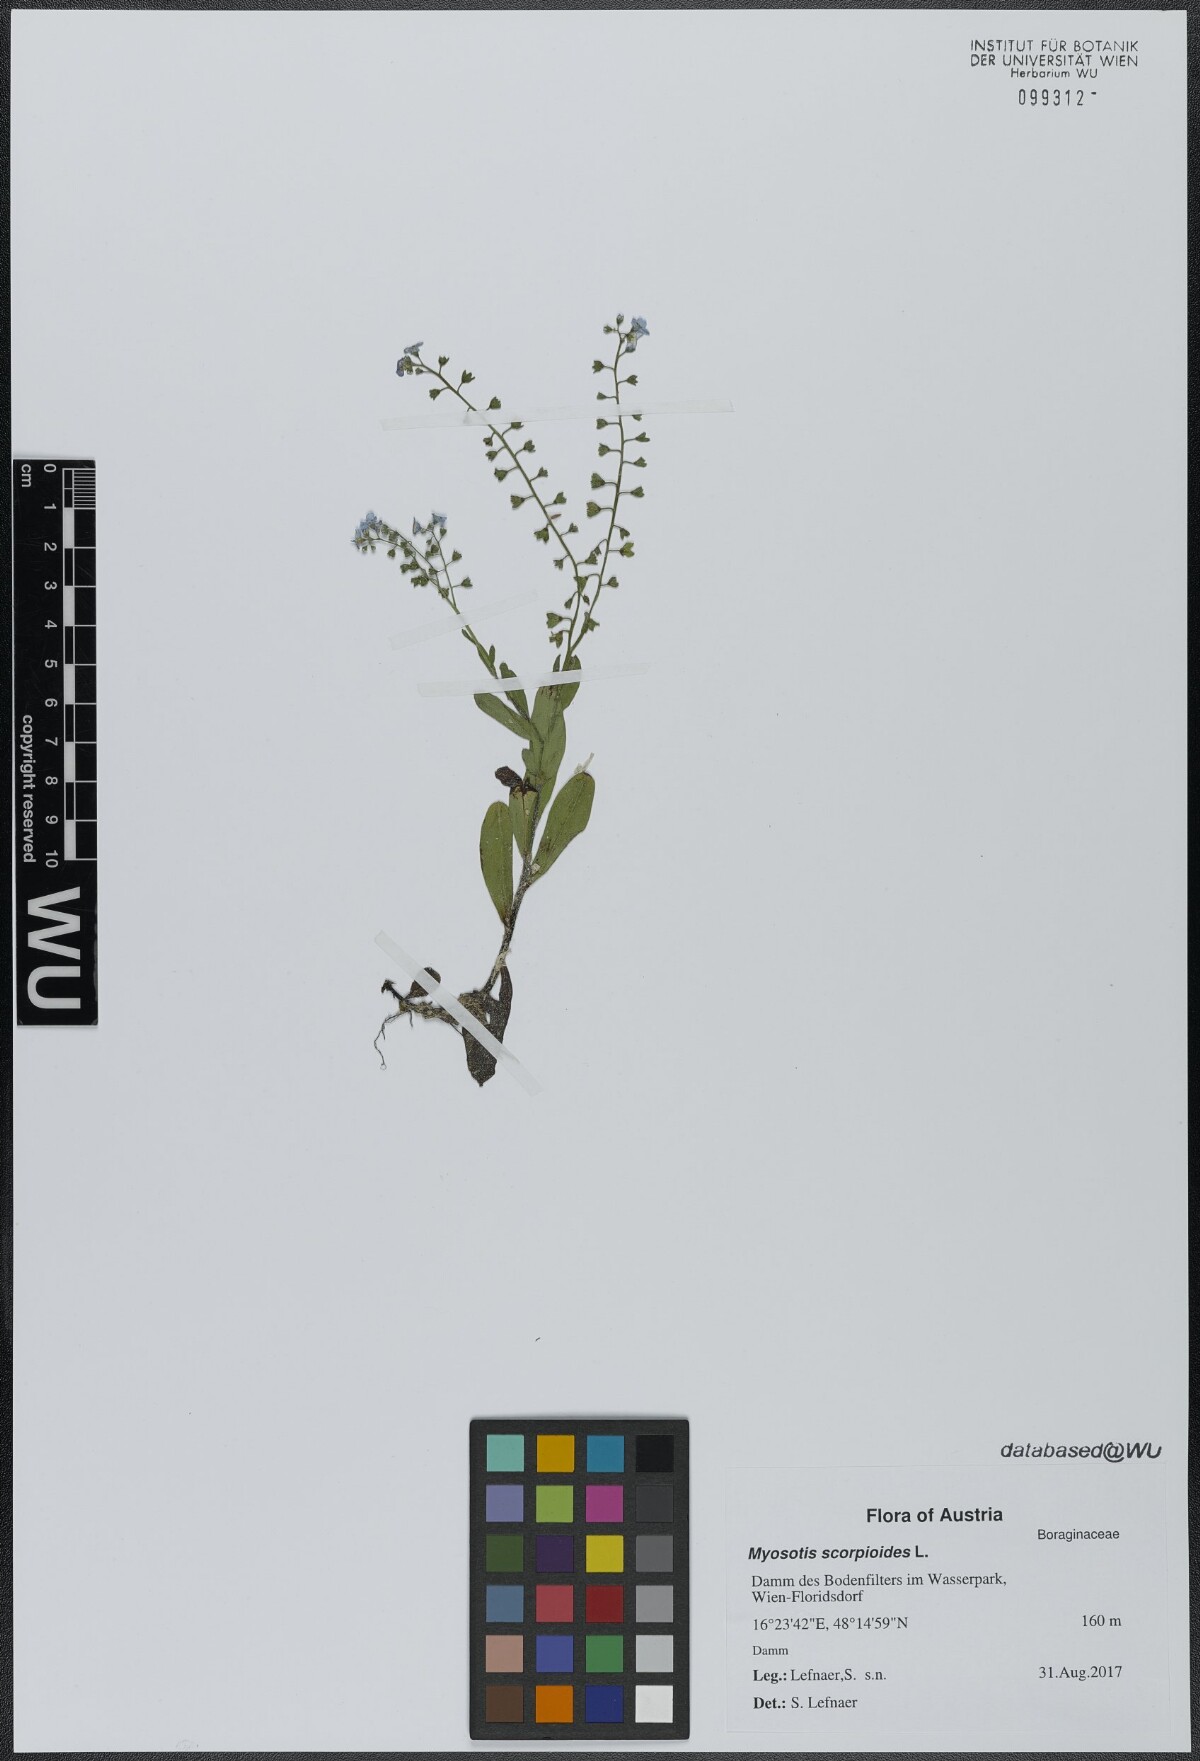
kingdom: Plantae
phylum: Tracheophyta
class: Magnoliopsida
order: Boraginales
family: Boraginaceae
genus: Myosotis
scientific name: Myosotis scorpioides
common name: Water forget-me-not
